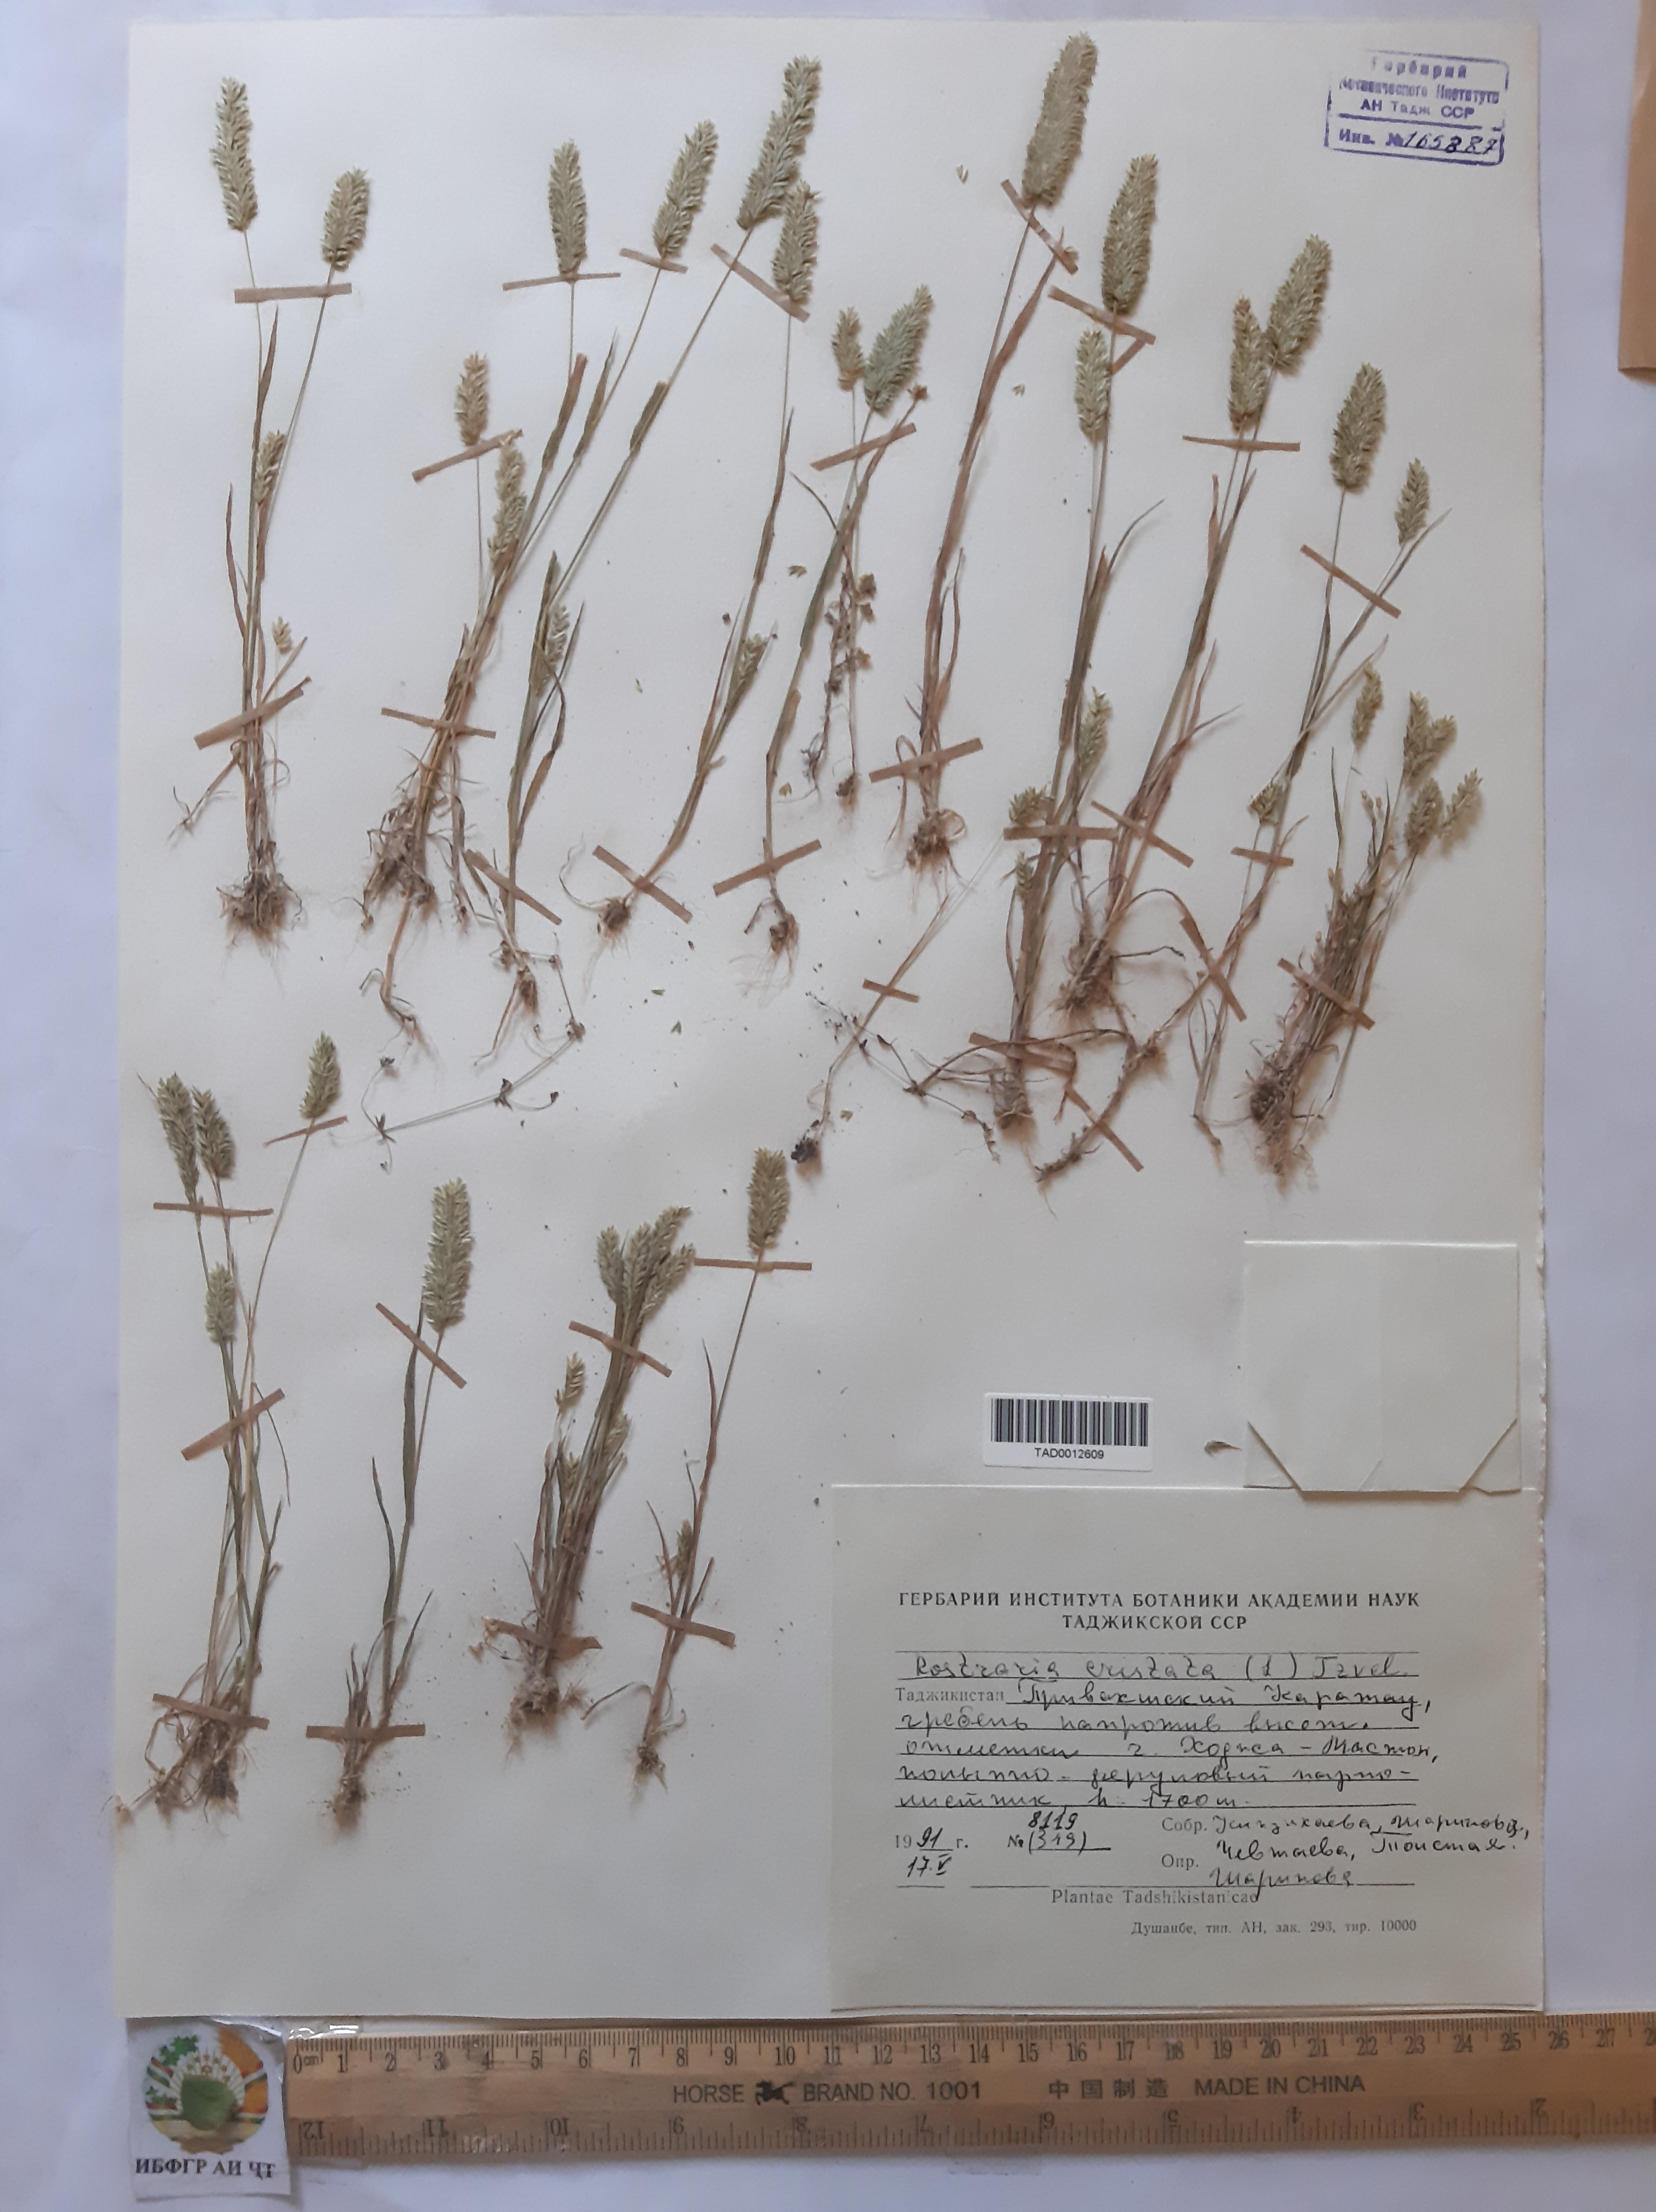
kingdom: Plantae
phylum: Tracheophyta
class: Liliopsida
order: Poales
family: Poaceae
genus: Rostraria
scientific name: Rostraria cristata
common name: Mediterranean hair-grass
